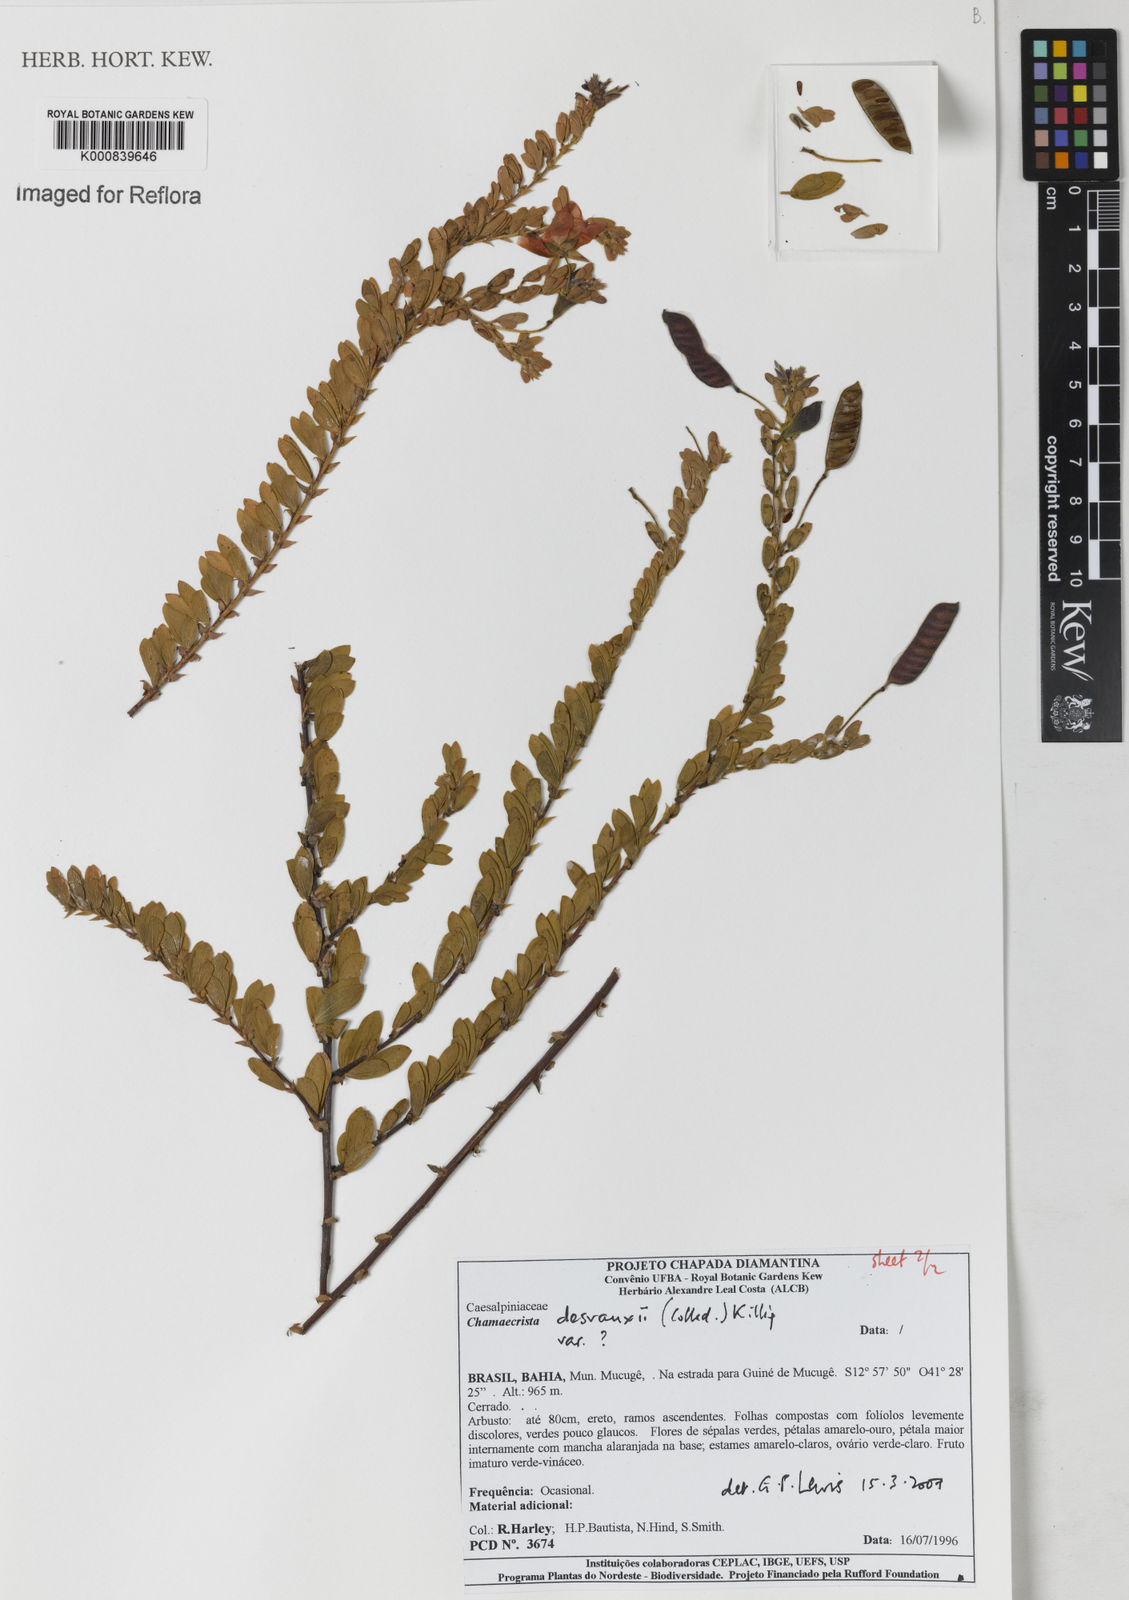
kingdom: Plantae
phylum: Tracheophyta
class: Magnoliopsida
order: Fabales
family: Fabaceae
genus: Chamaecrista
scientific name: Chamaecrista desvauxii
